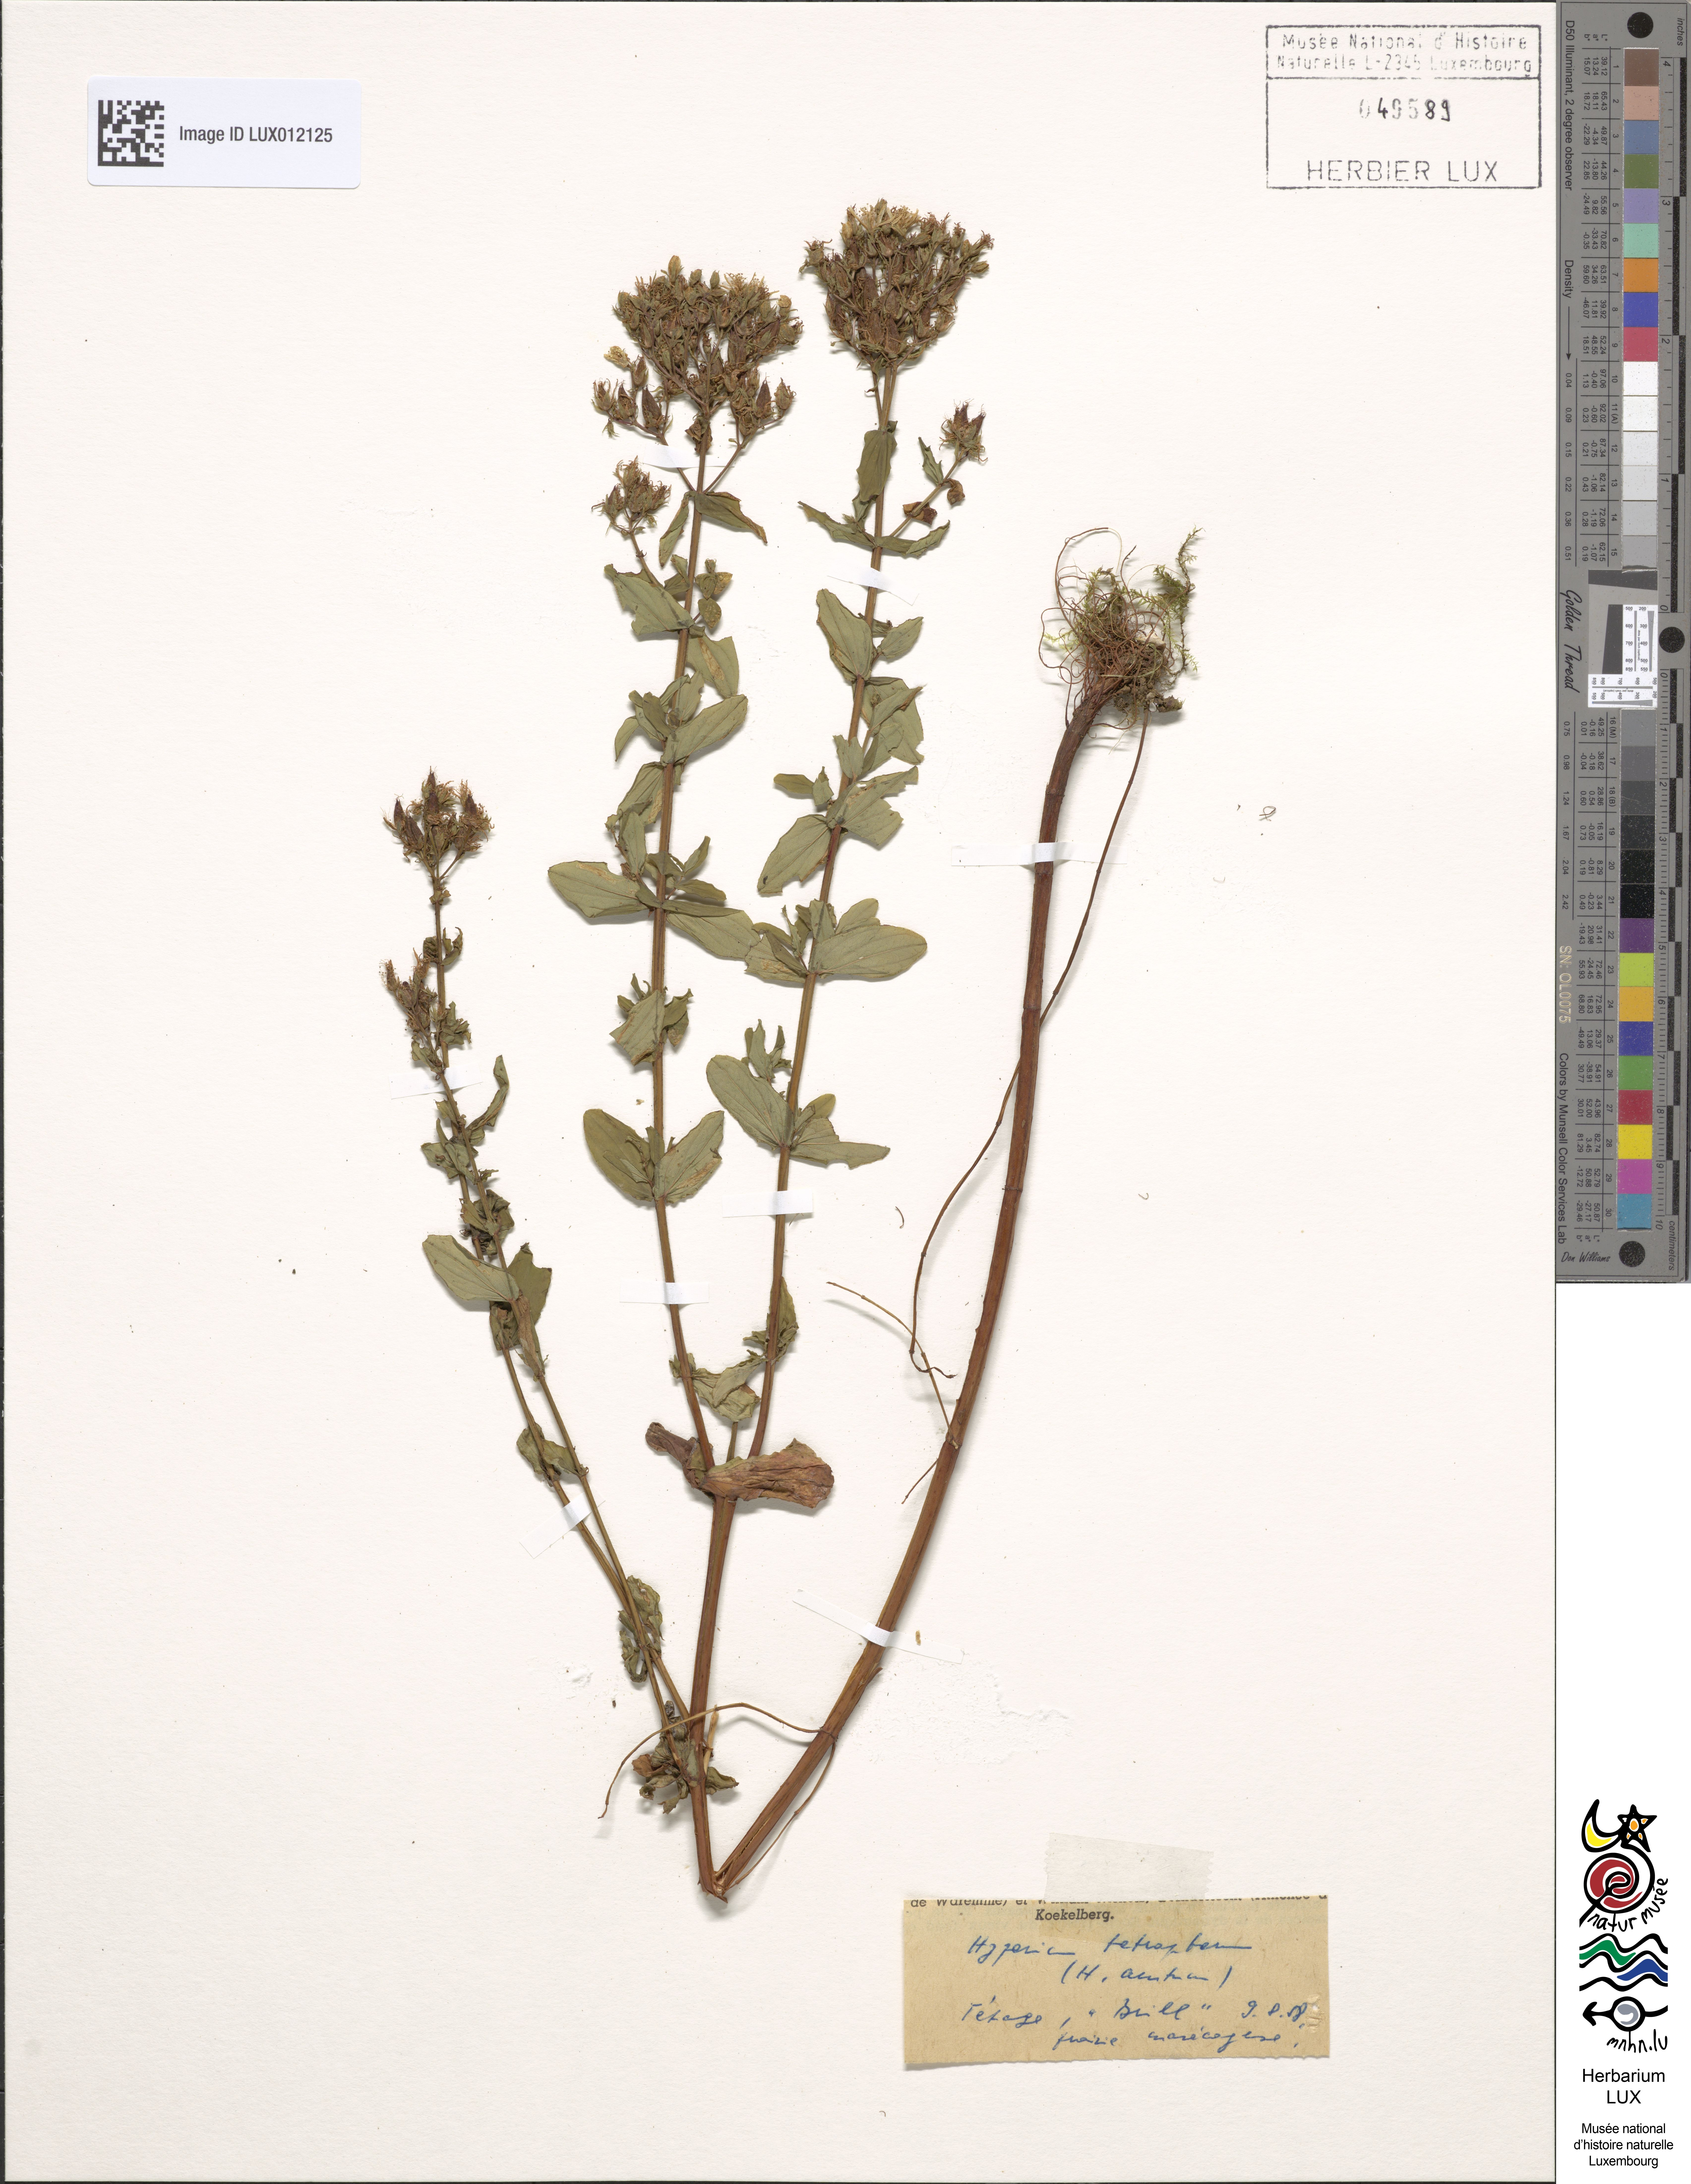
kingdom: Plantae
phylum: Tracheophyta
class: Magnoliopsida
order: Malpighiales
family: Hypericaceae
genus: Hypericum
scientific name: Hypericum tetrapterum
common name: Square-stalked st. john's-wort
